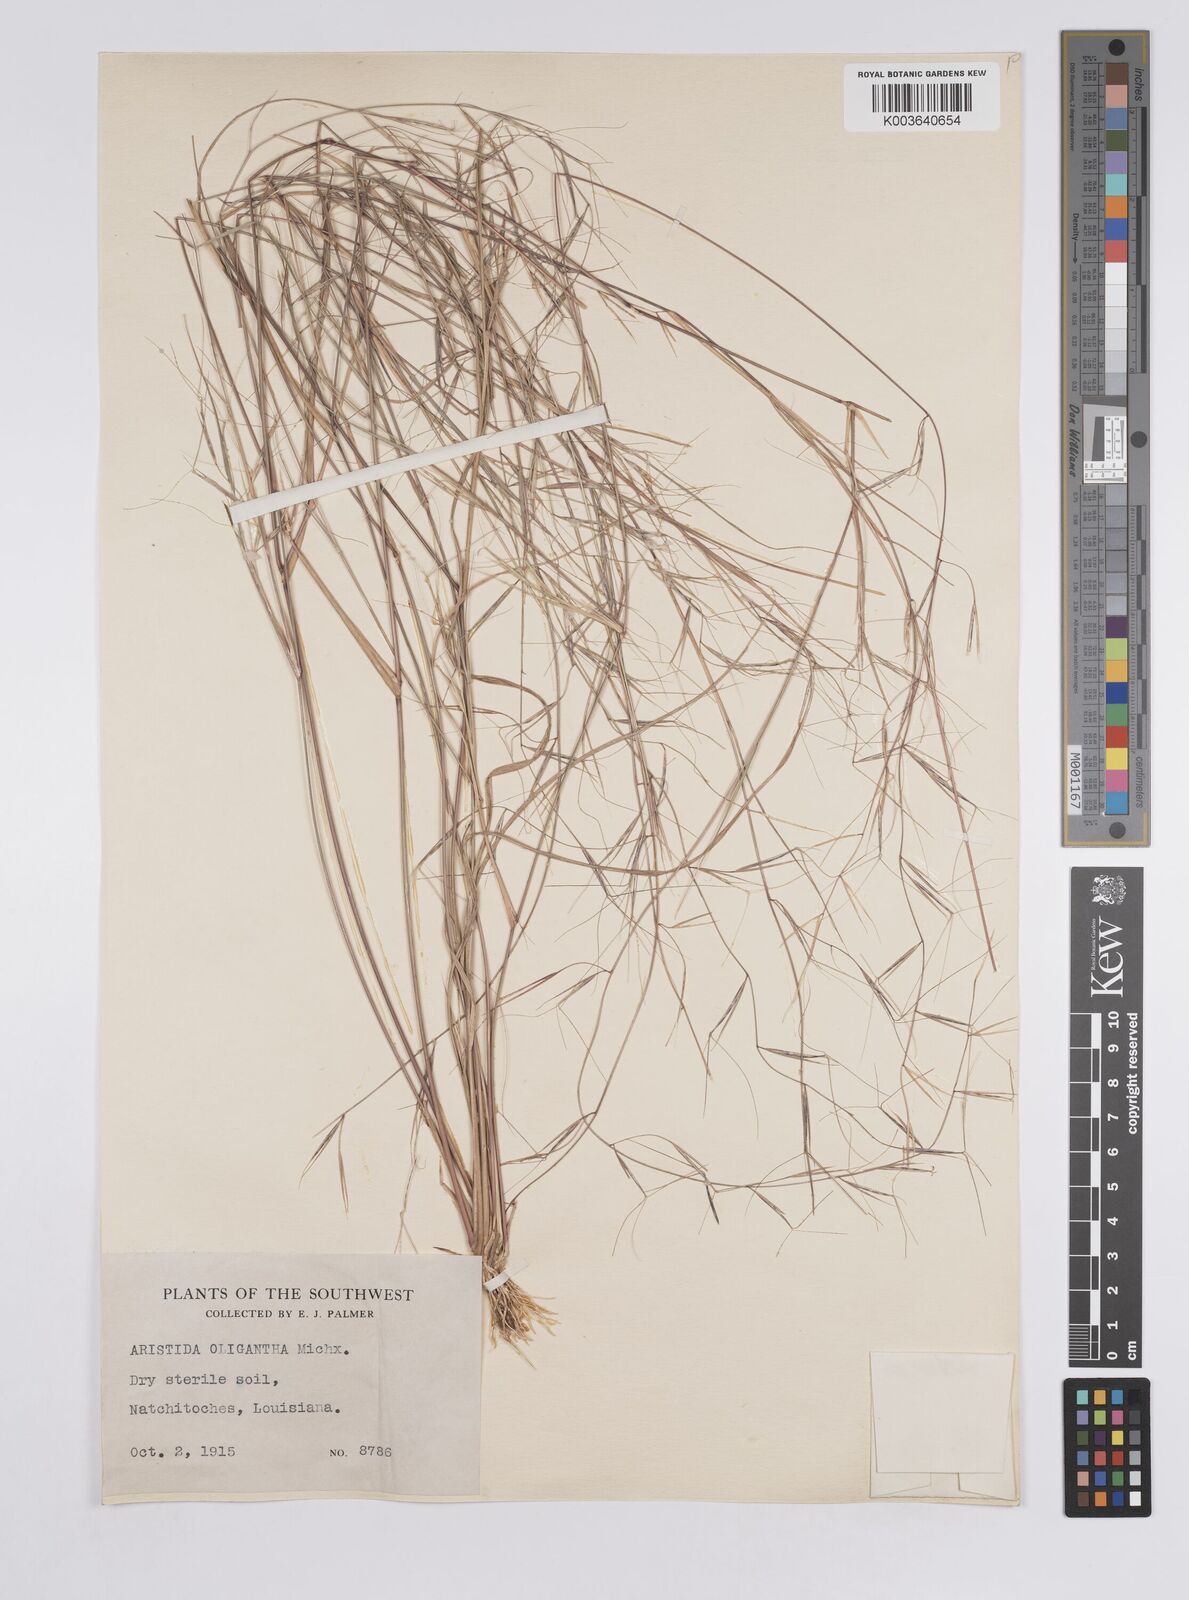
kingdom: Plantae
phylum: Tracheophyta
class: Liliopsida
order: Poales
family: Poaceae
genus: Aristida
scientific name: Aristida oligantha
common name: Few-flowered aristida
